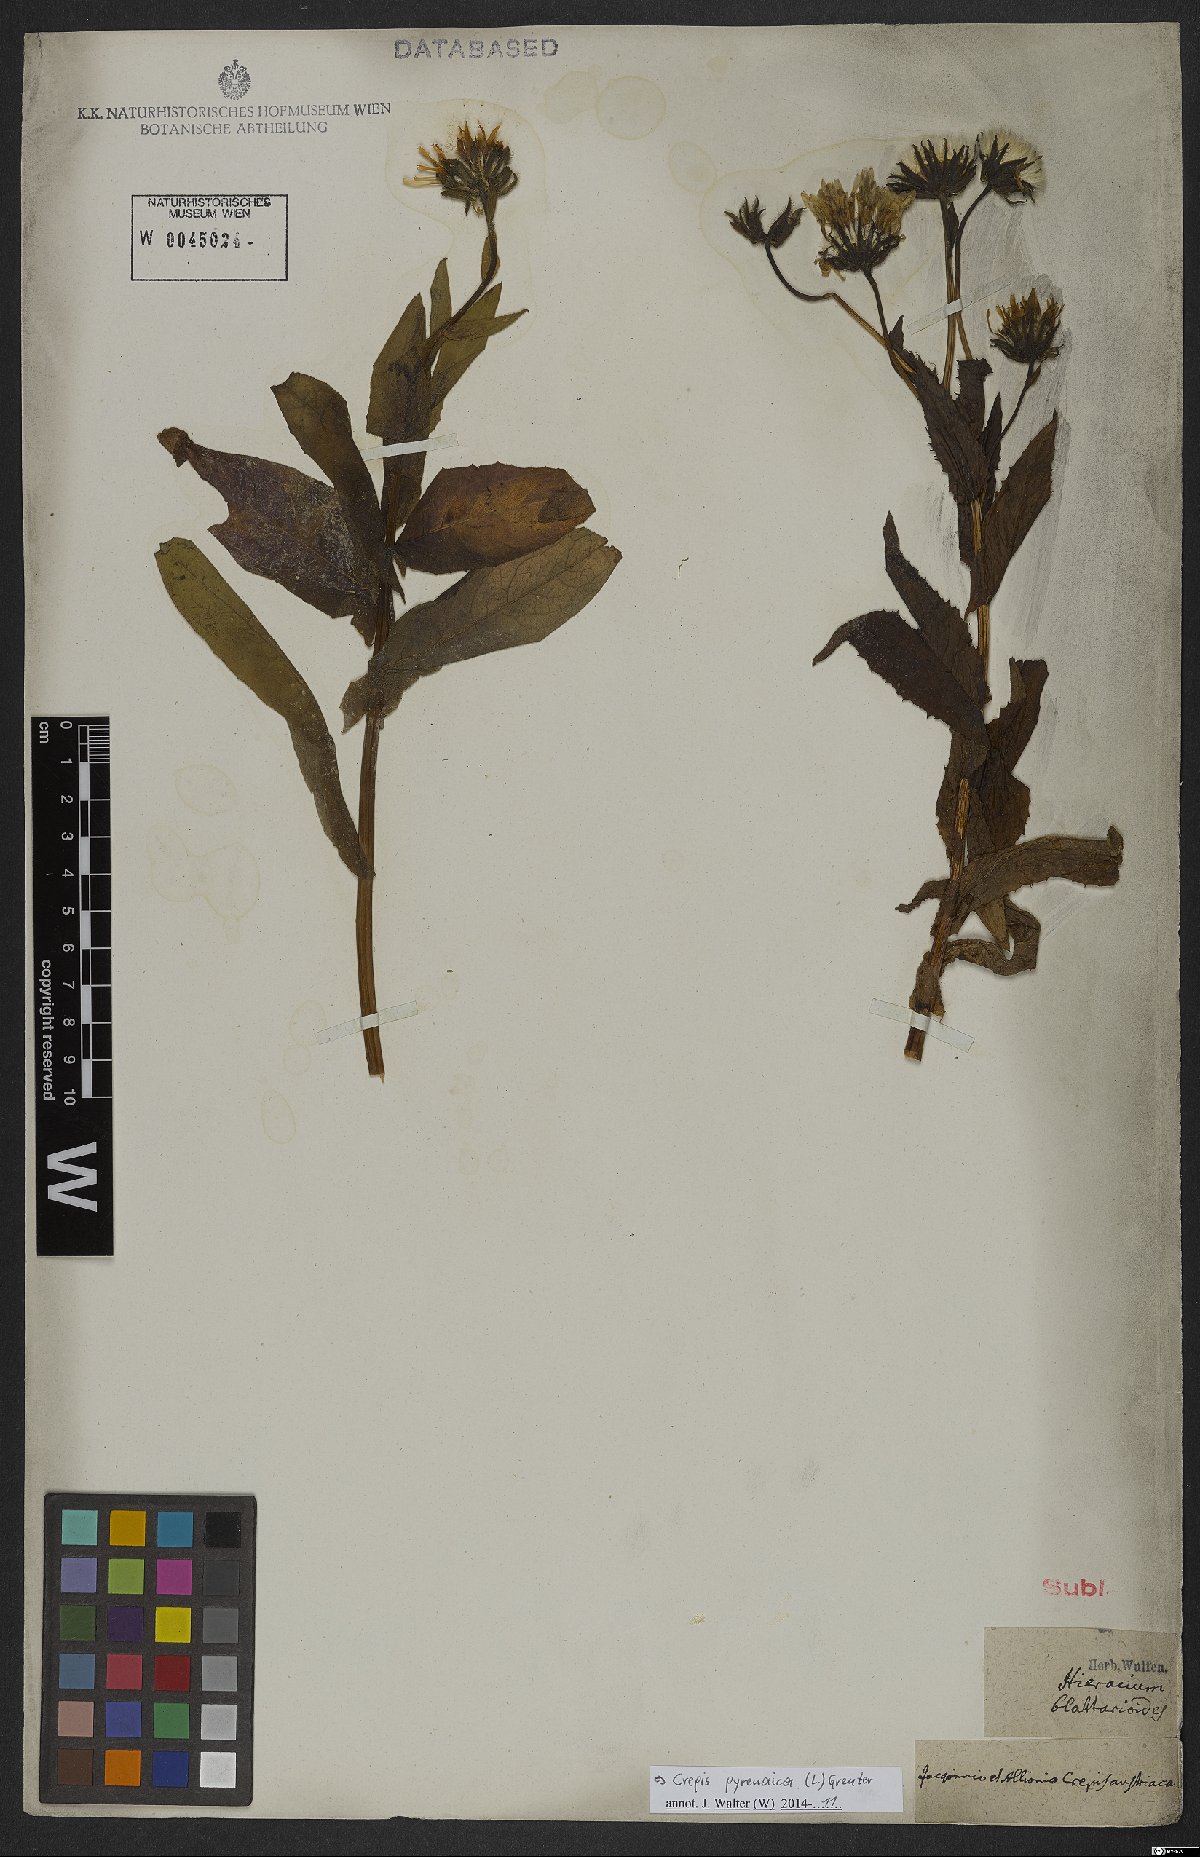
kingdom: Plantae
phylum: Tracheophyta
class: Magnoliopsida
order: Asterales
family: Asteraceae
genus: Crepis
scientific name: Crepis pyrenaica
